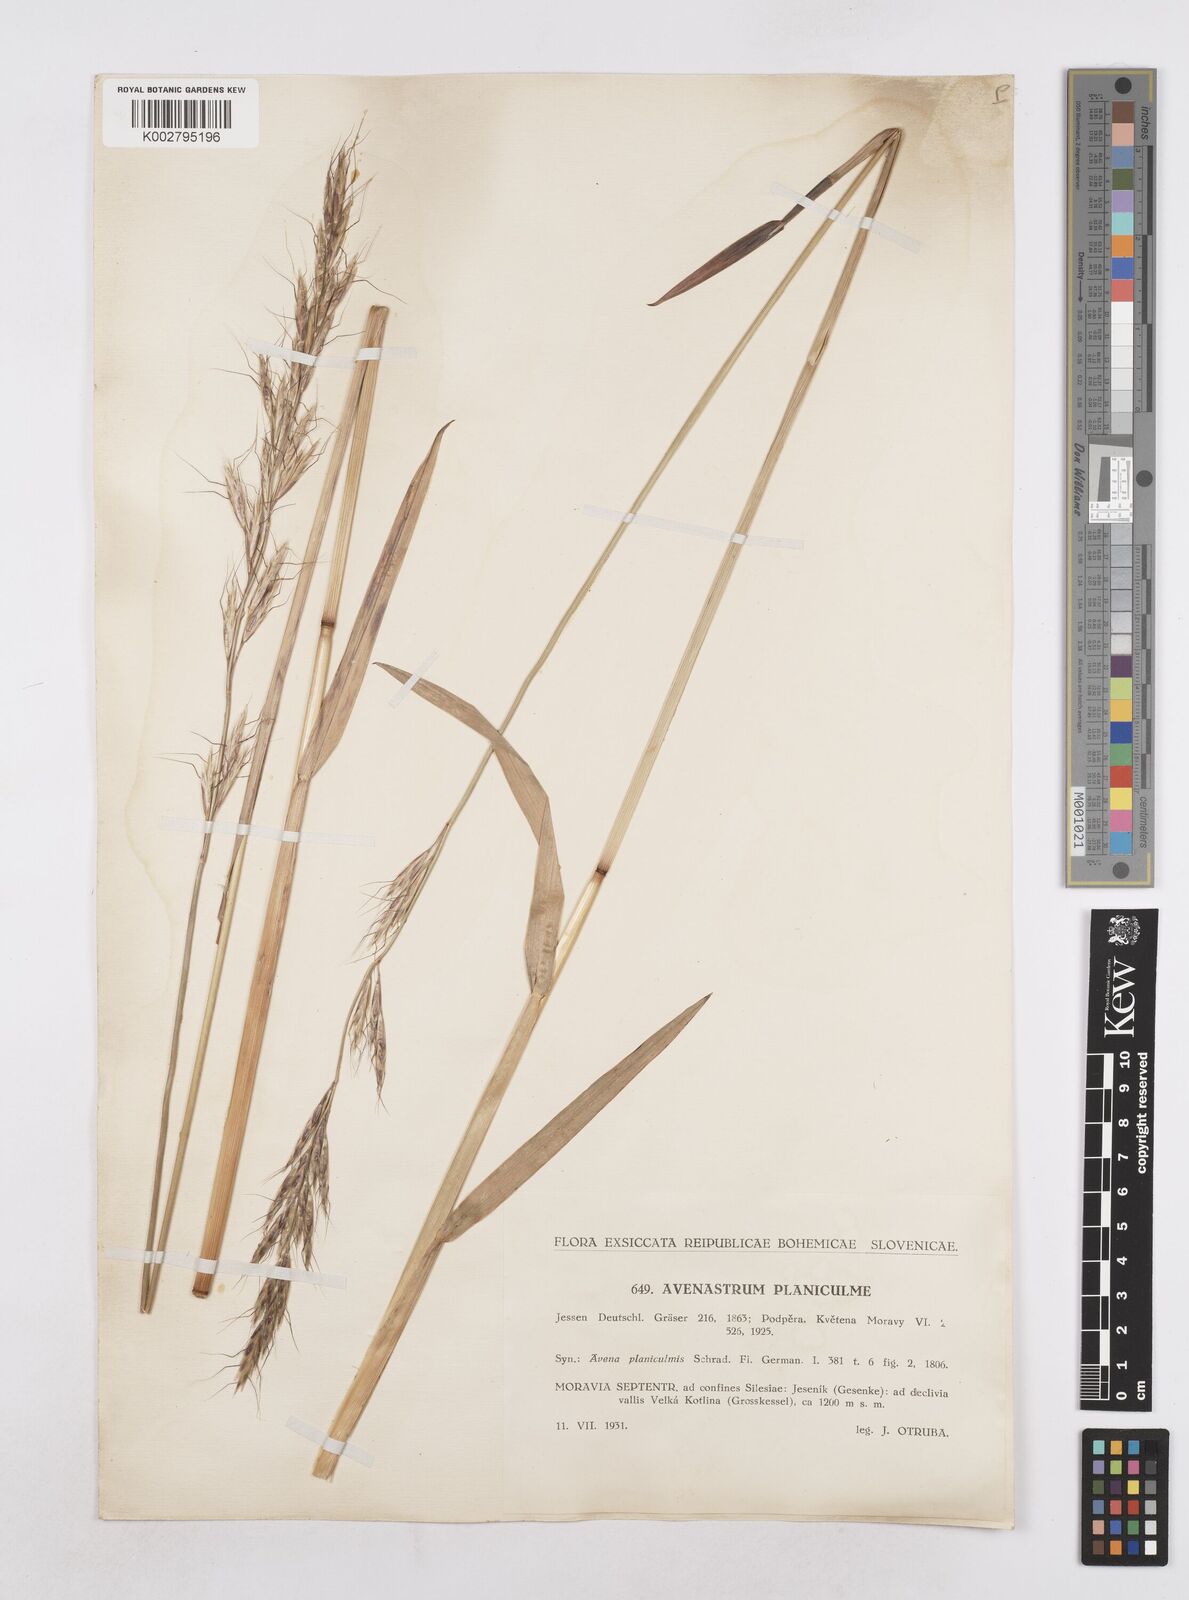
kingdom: Plantae
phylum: Tracheophyta
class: Liliopsida
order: Poales
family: Poaceae
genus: Helictochloa
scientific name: Helictochloa planiculmis
